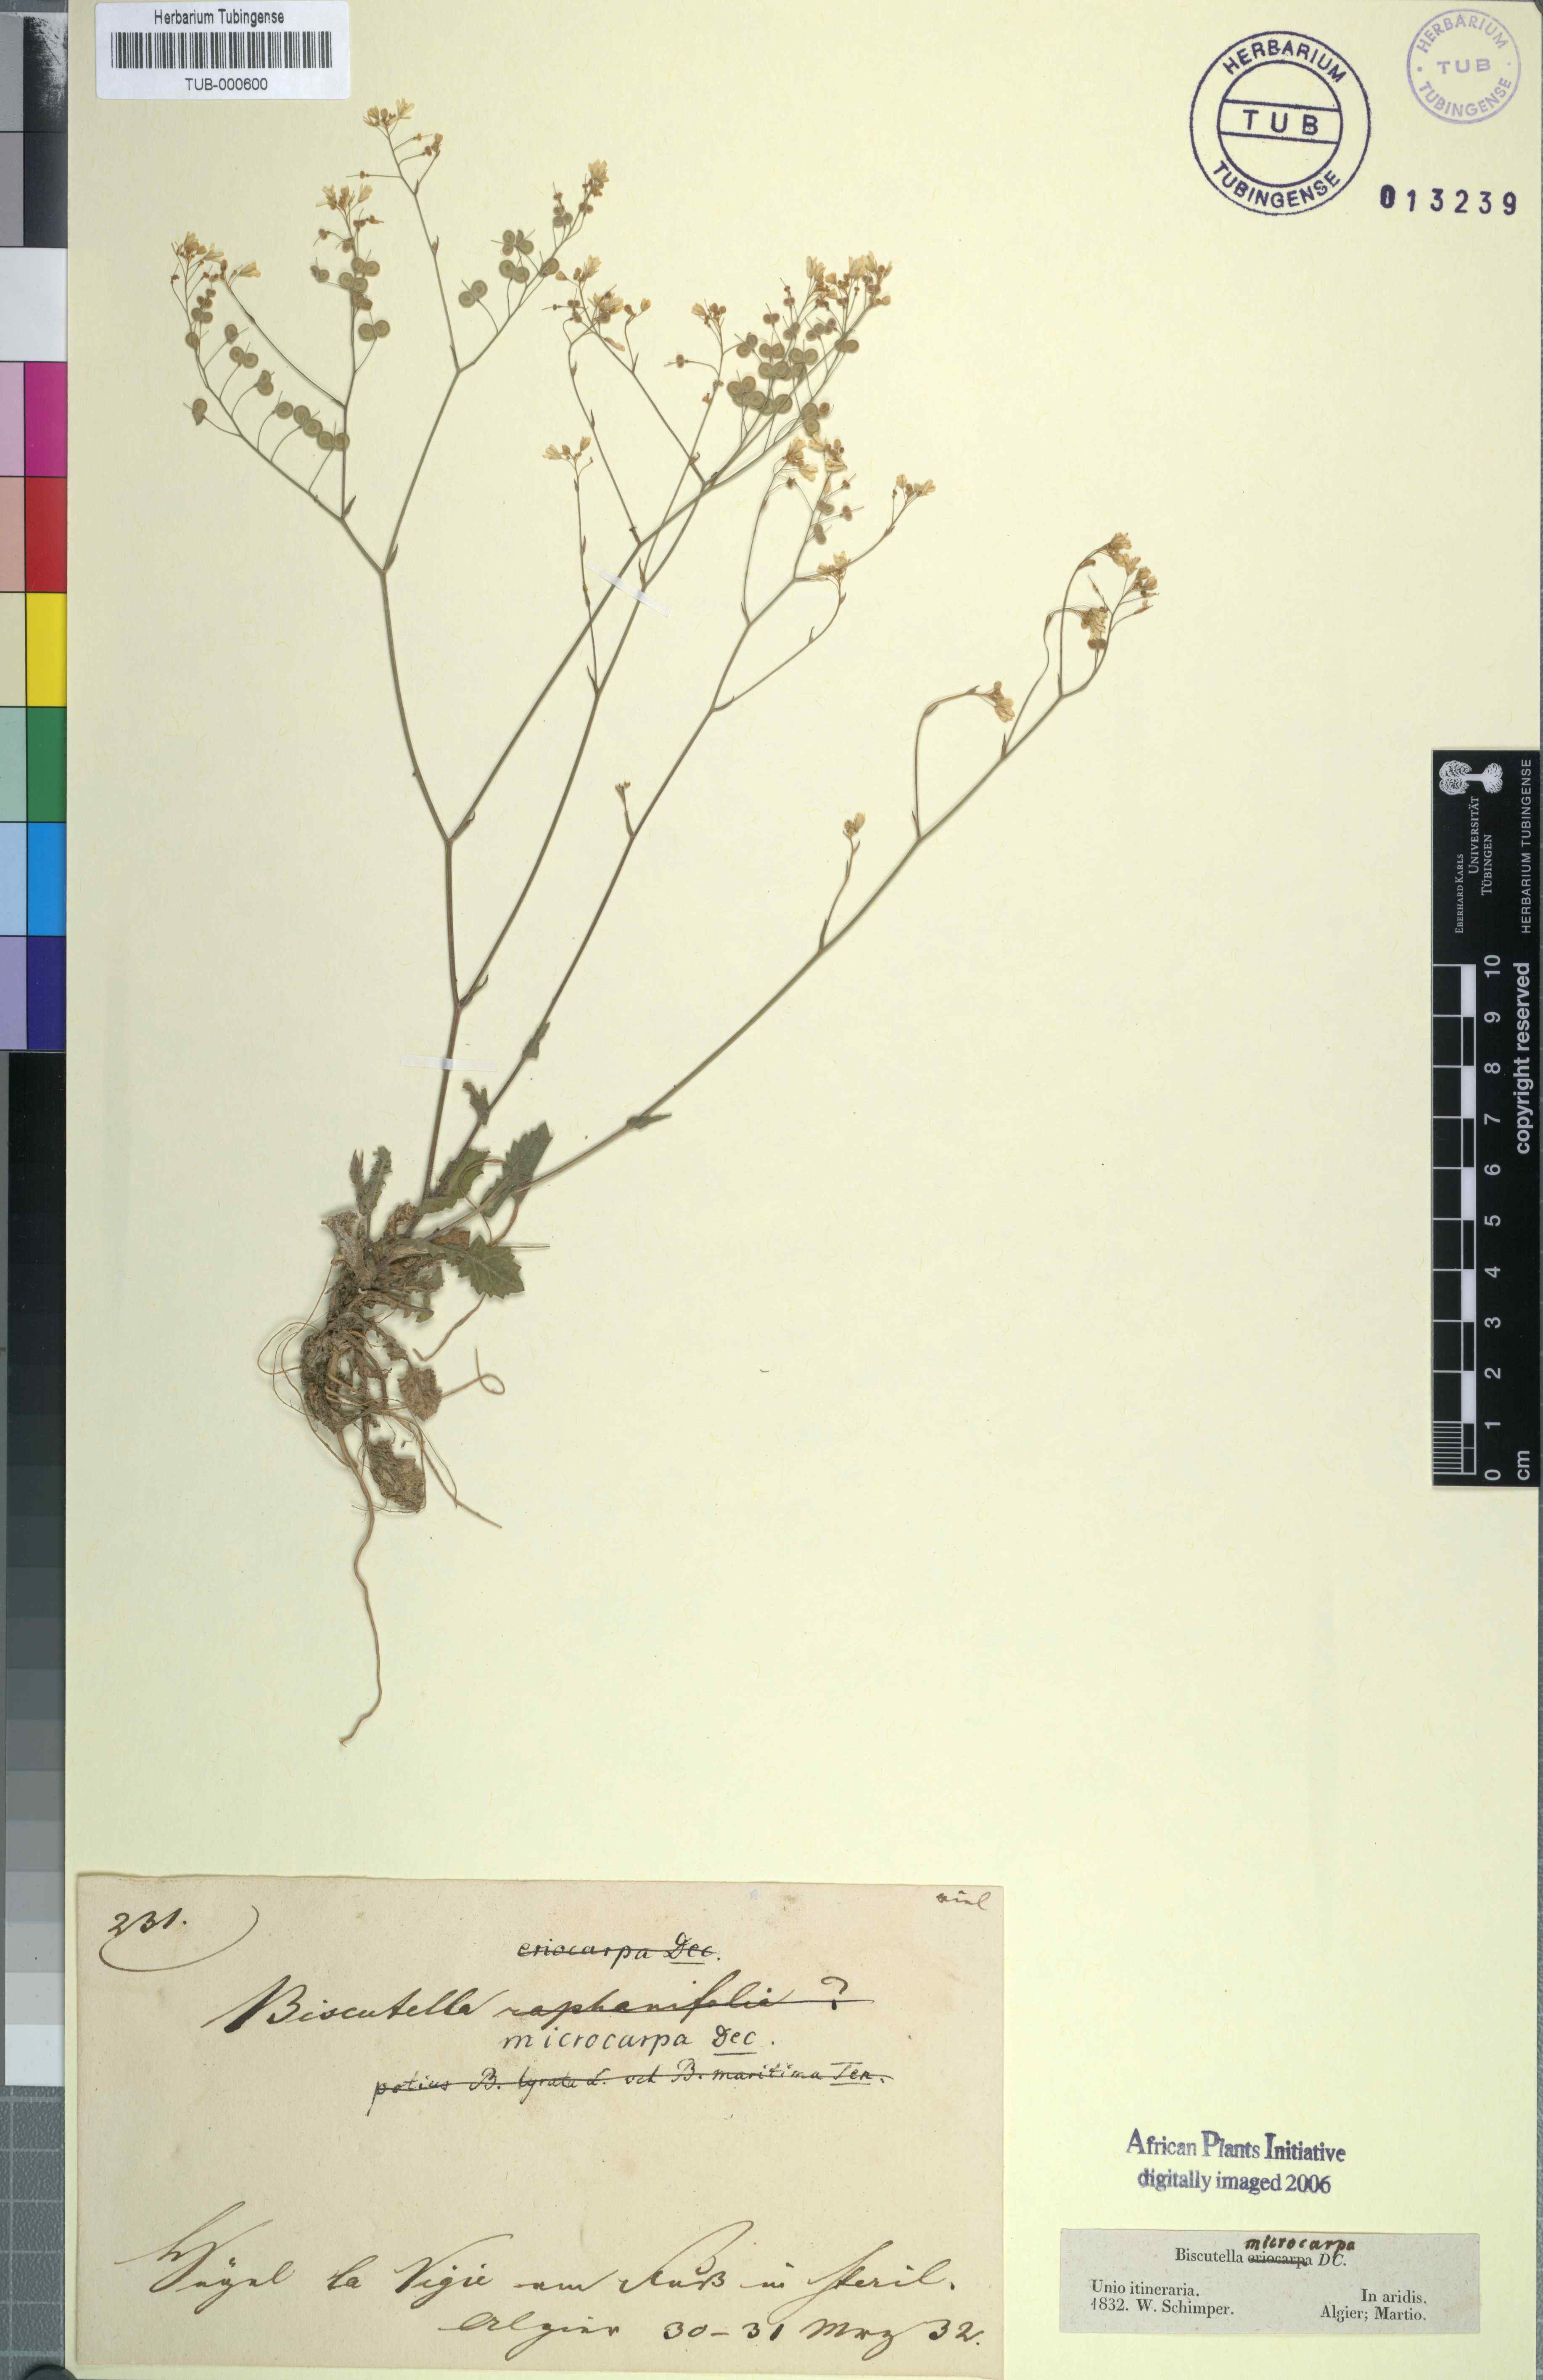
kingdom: Plantae
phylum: Tracheophyta
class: Magnoliopsida
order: Brassicales
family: Brassicaceae
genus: Biscutella
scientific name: Biscutella lyrata
